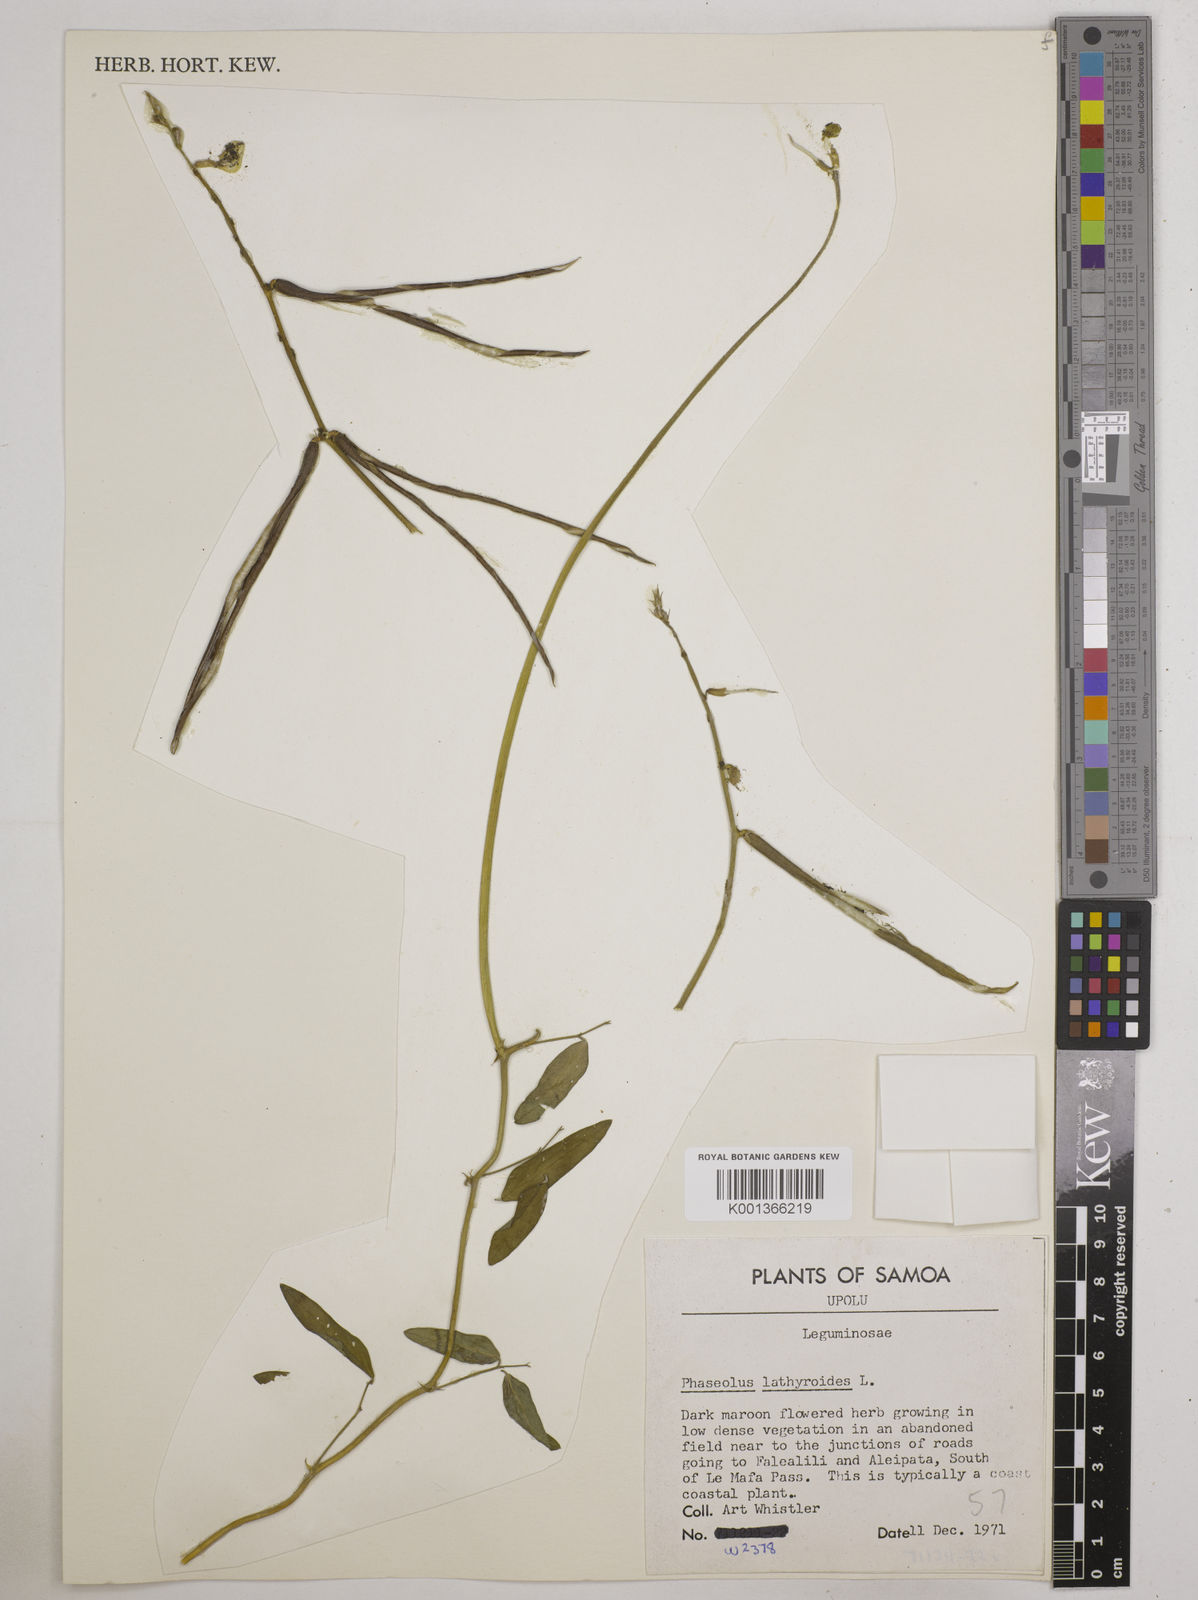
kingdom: Plantae
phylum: Tracheophyta
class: Magnoliopsida
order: Fabales
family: Fabaceae
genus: Macroptilium
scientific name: Macroptilium lathyroides
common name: Wild bushbean
